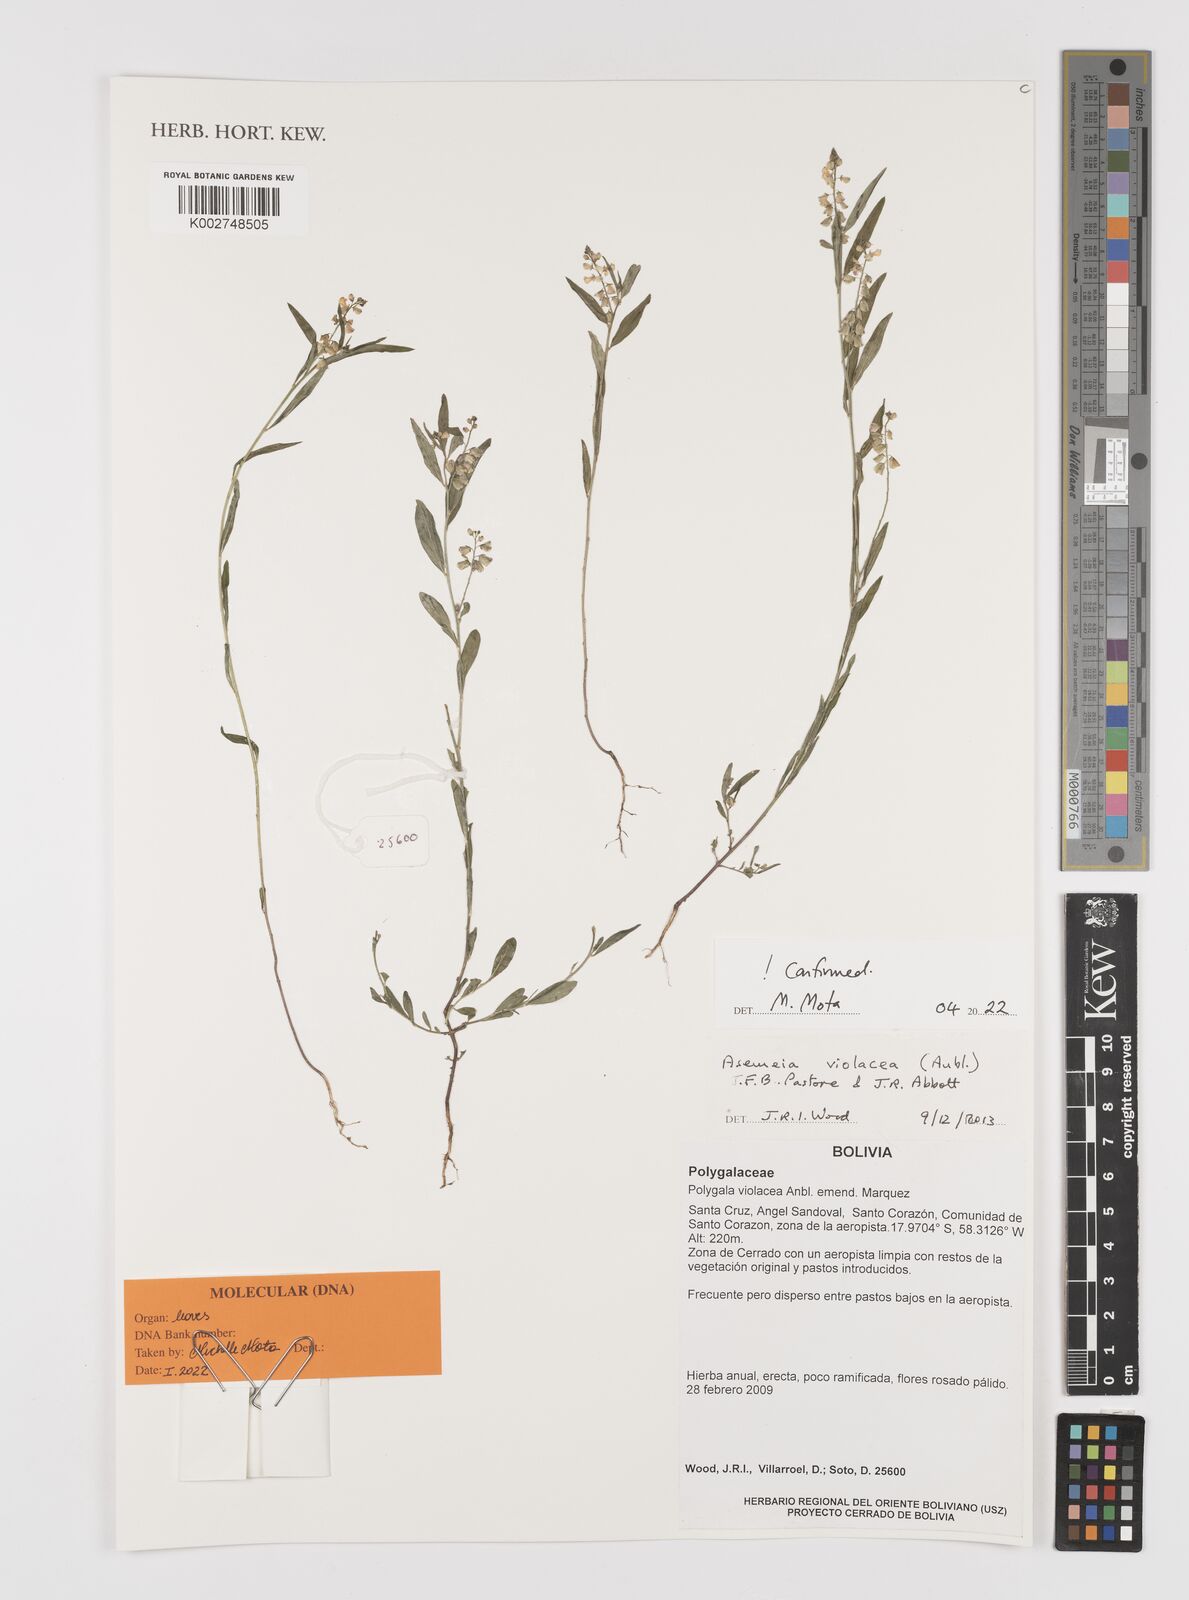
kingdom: Plantae
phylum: Tracheophyta
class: Magnoliopsida
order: Fabales
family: Polygalaceae
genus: Asemeia
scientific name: Asemeia violacea
